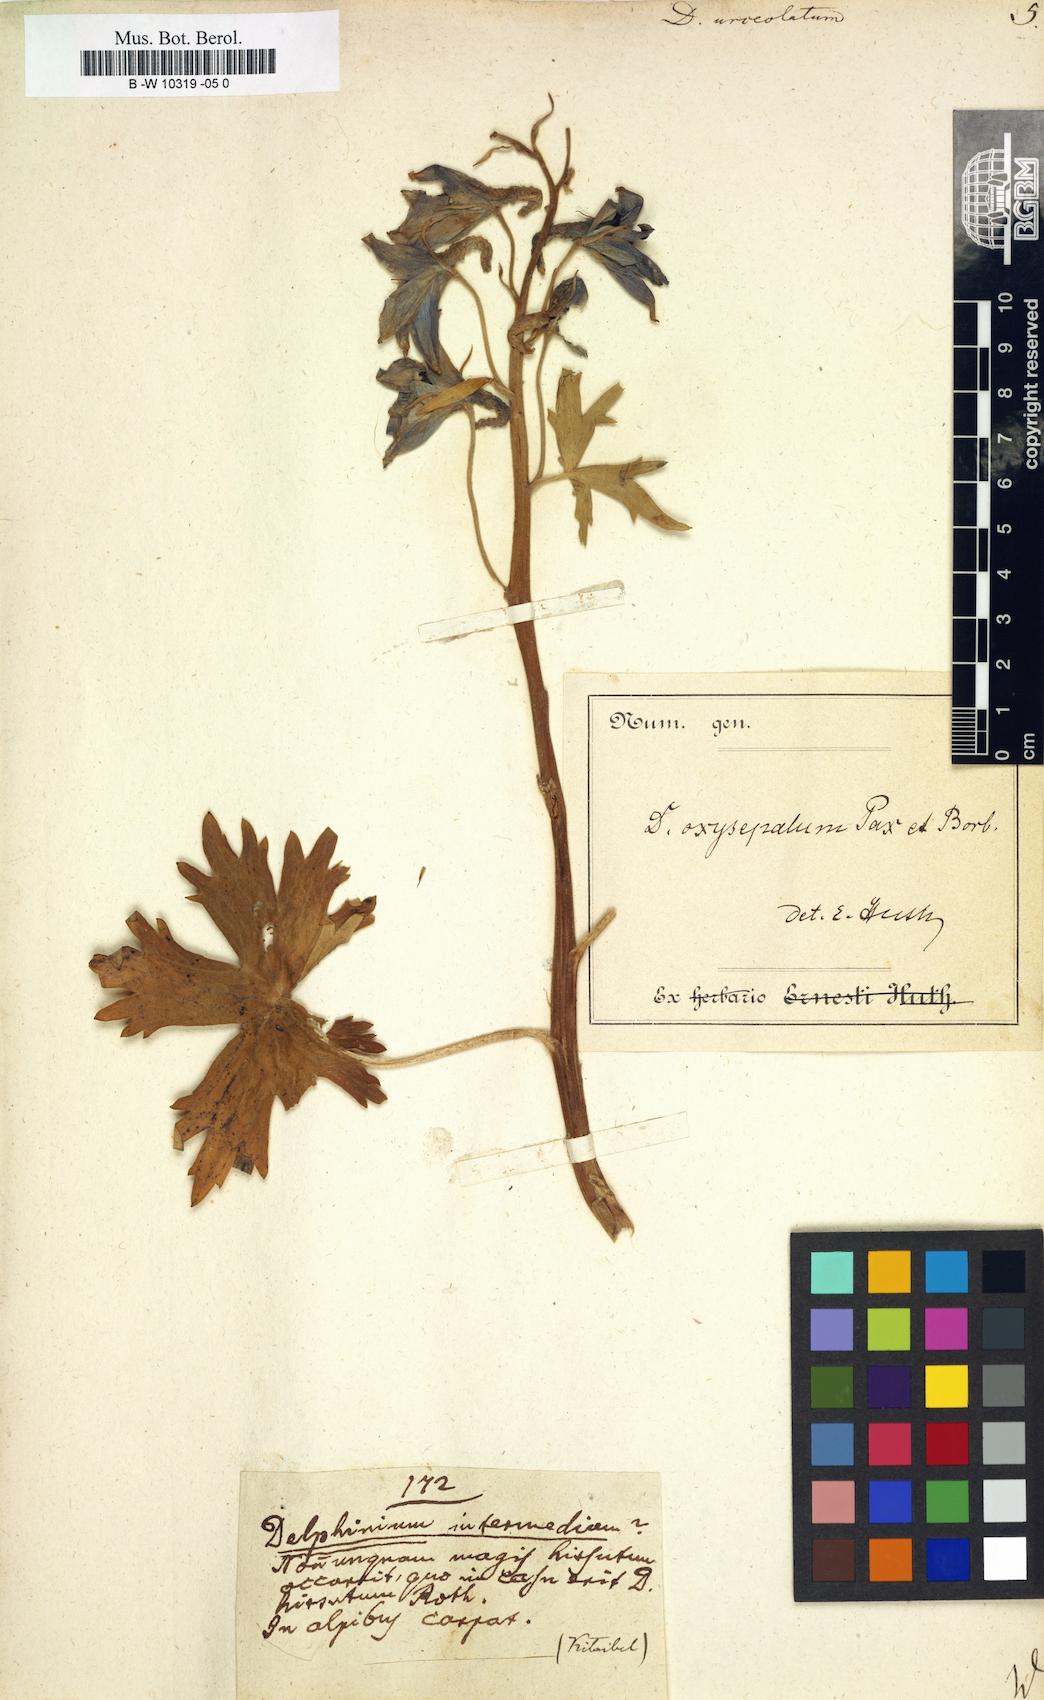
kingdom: Plantae
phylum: Tracheophyta
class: Magnoliopsida
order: Ranunculales
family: Ranunculaceae
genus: Delphinium
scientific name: Delphinium elatum
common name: Candle larkspur
